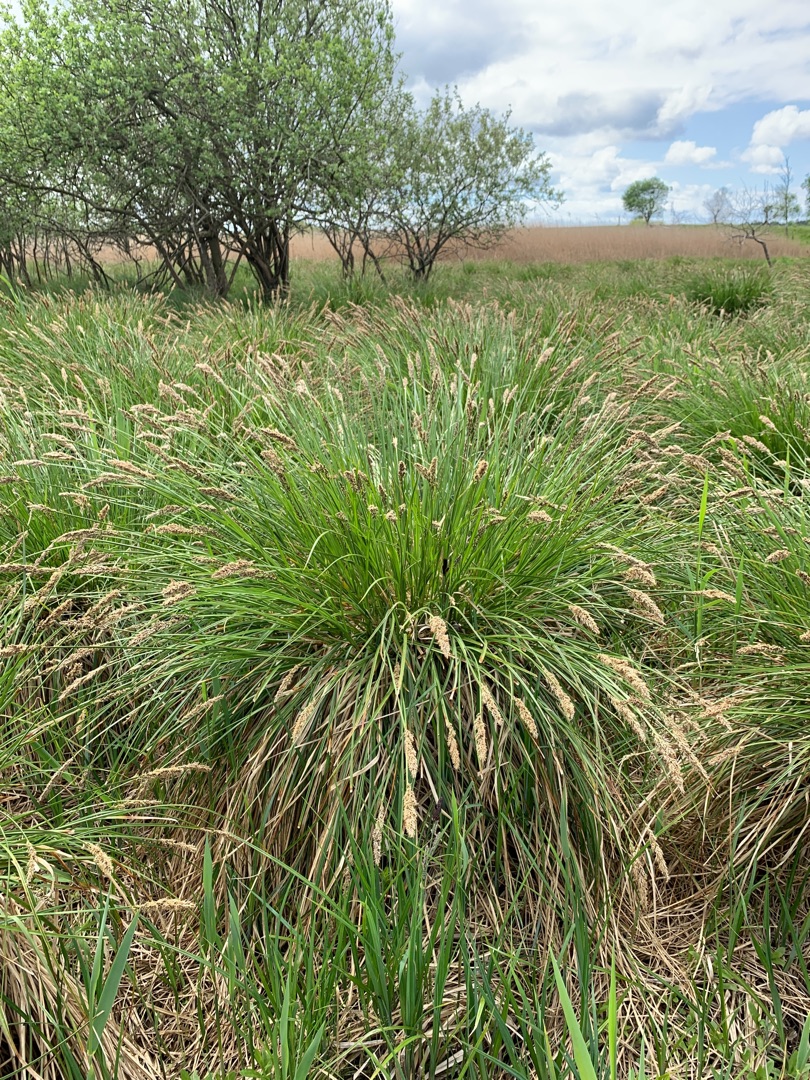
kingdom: Plantae
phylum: Tracheophyta
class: Liliopsida
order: Poales
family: Cyperaceae
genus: Carex
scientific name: Carex paniculata
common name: Top-star
